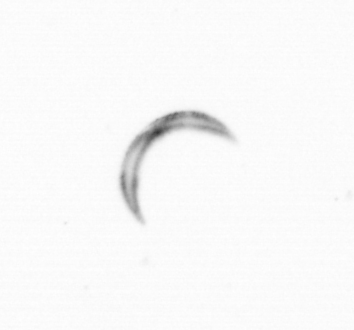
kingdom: Chromista
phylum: Ochrophyta
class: Bacillariophyceae
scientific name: Bacillariophyceae
